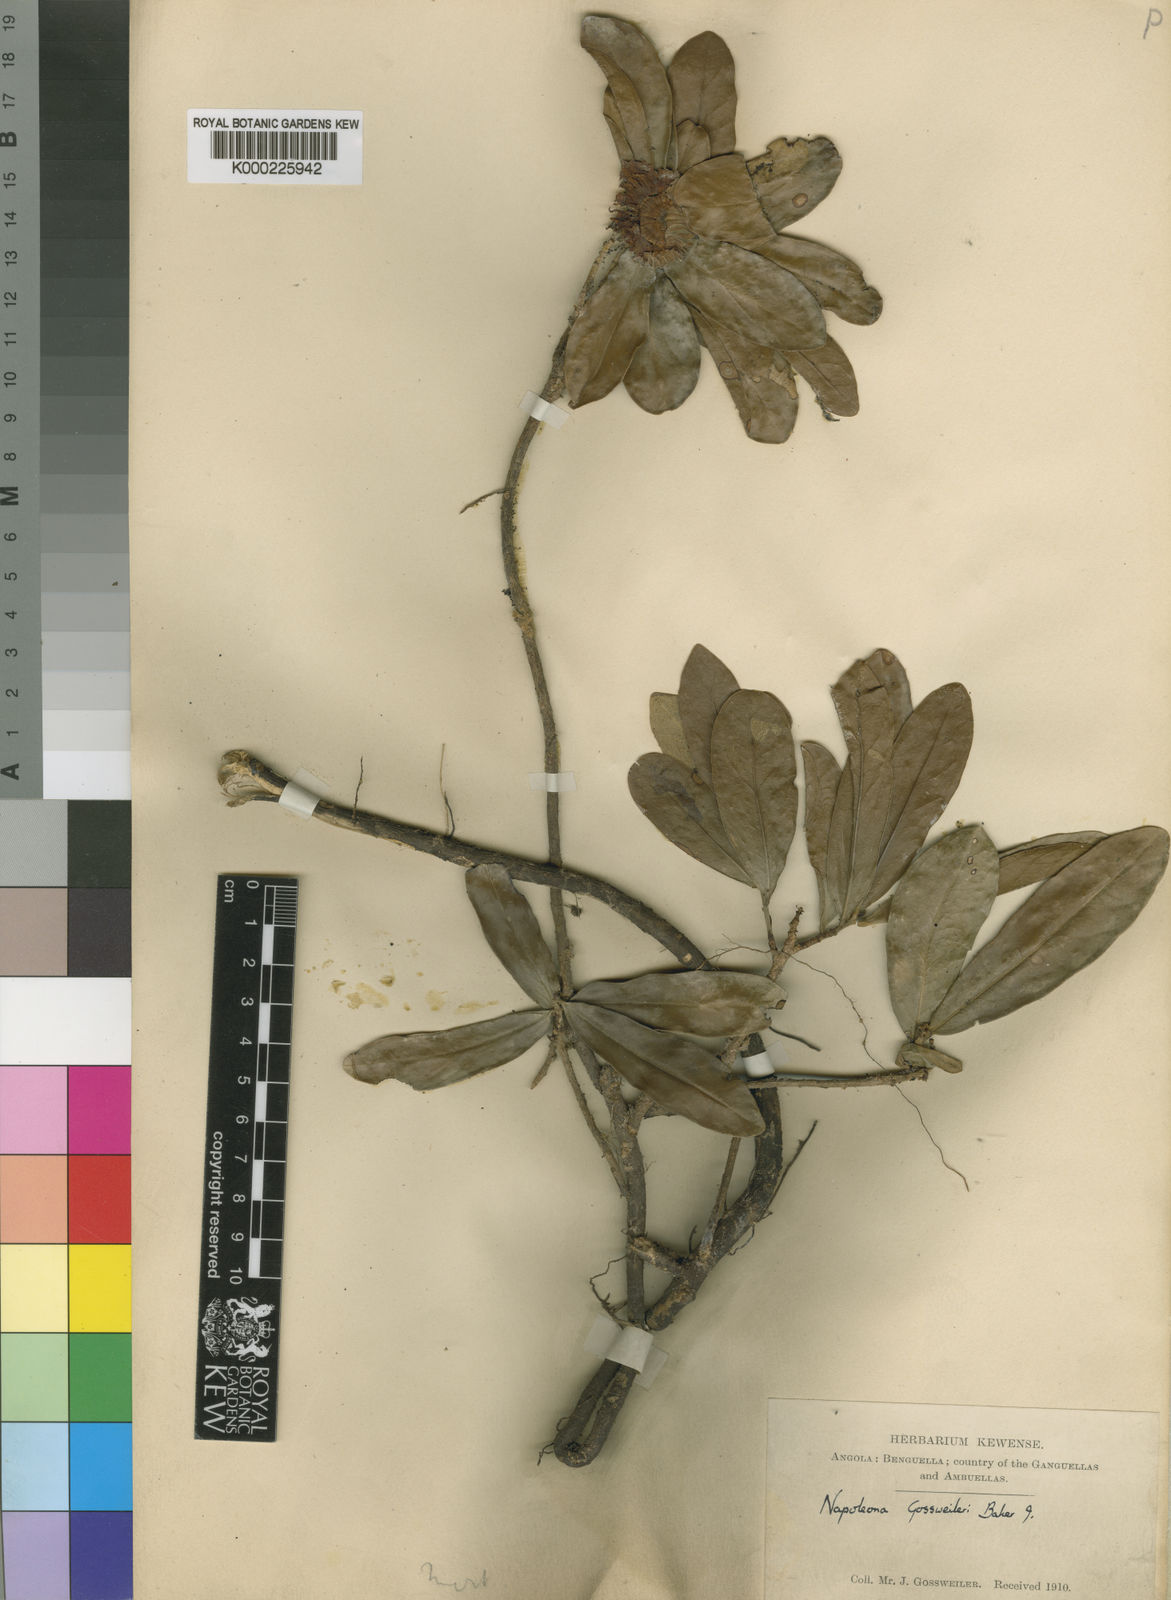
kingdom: Plantae
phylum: Tracheophyta
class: Magnoliopsida
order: Ericales
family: Lecythidaceae
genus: Napoleonaea
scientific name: Napoleonaea gossweileri
